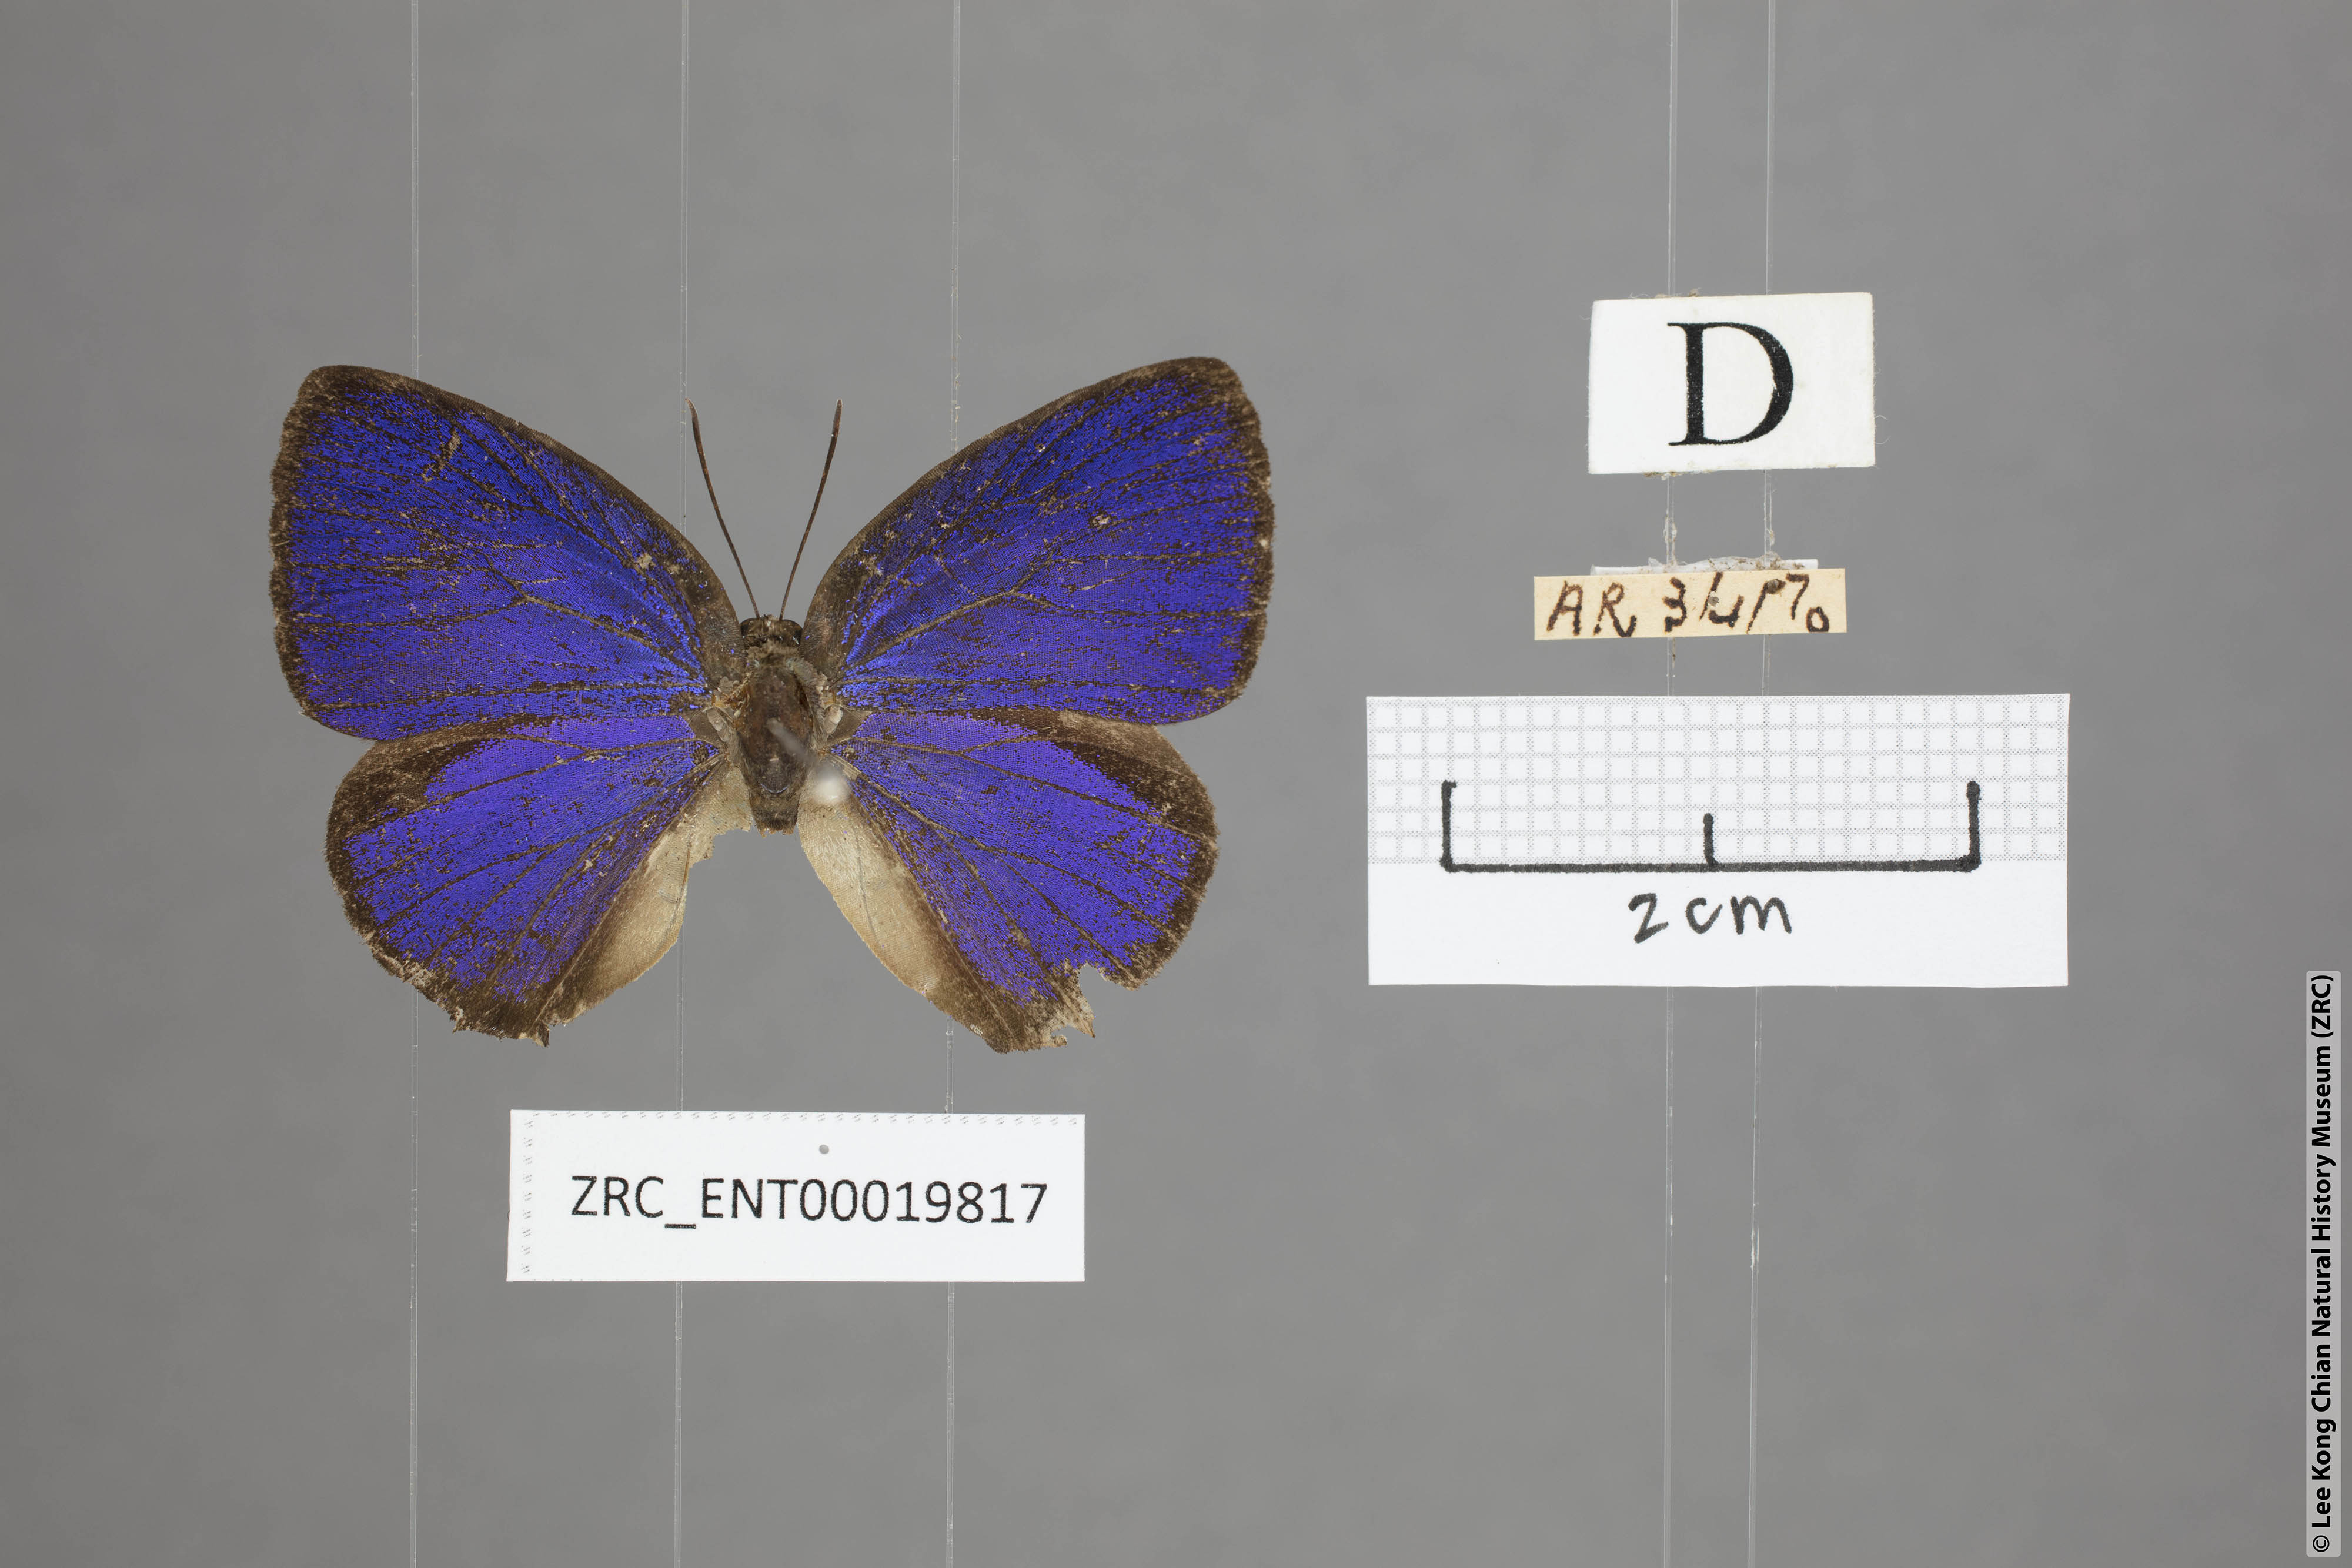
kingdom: Animalia
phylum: Arthropoda
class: Insecta
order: Lepidoptera
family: Lycaenidae
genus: Arhopala
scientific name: Arhopala pseudomuta
